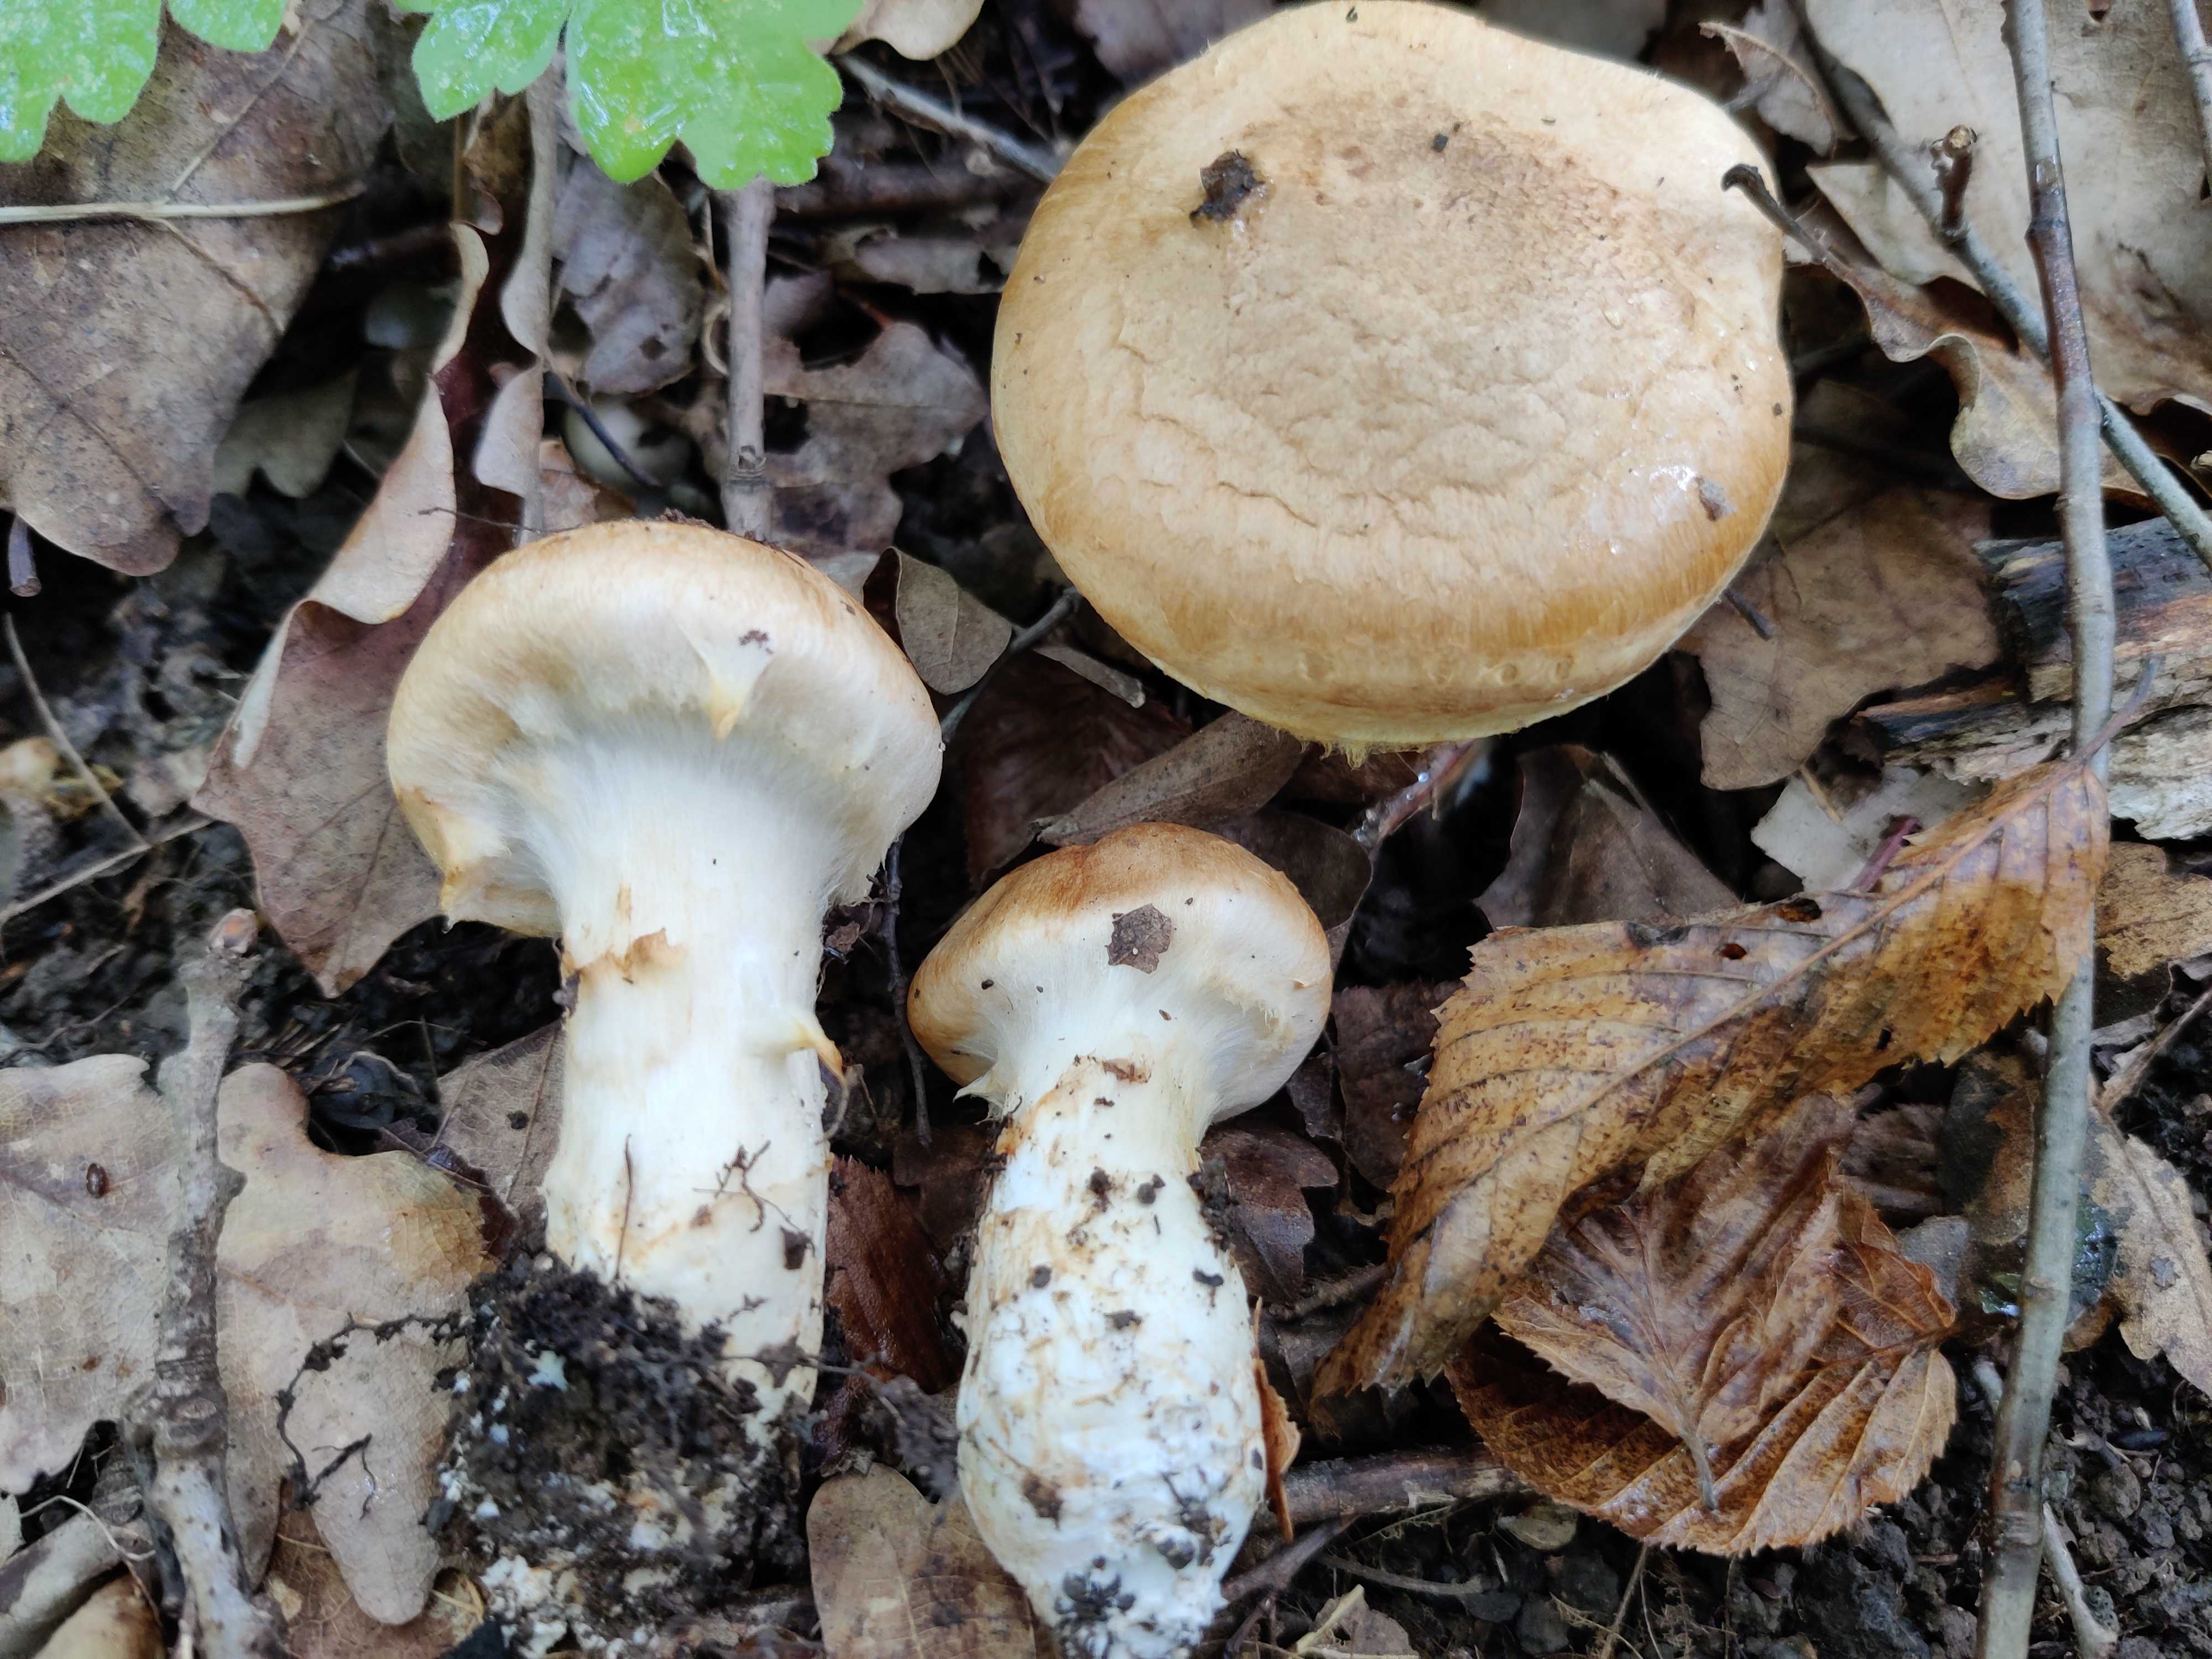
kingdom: Fungi
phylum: Basidiomycota
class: Agaricomycetes
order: Agaricales
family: Cortinariaceae
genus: Phlegmacium
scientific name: Phlegmacium pseudovulpinum
